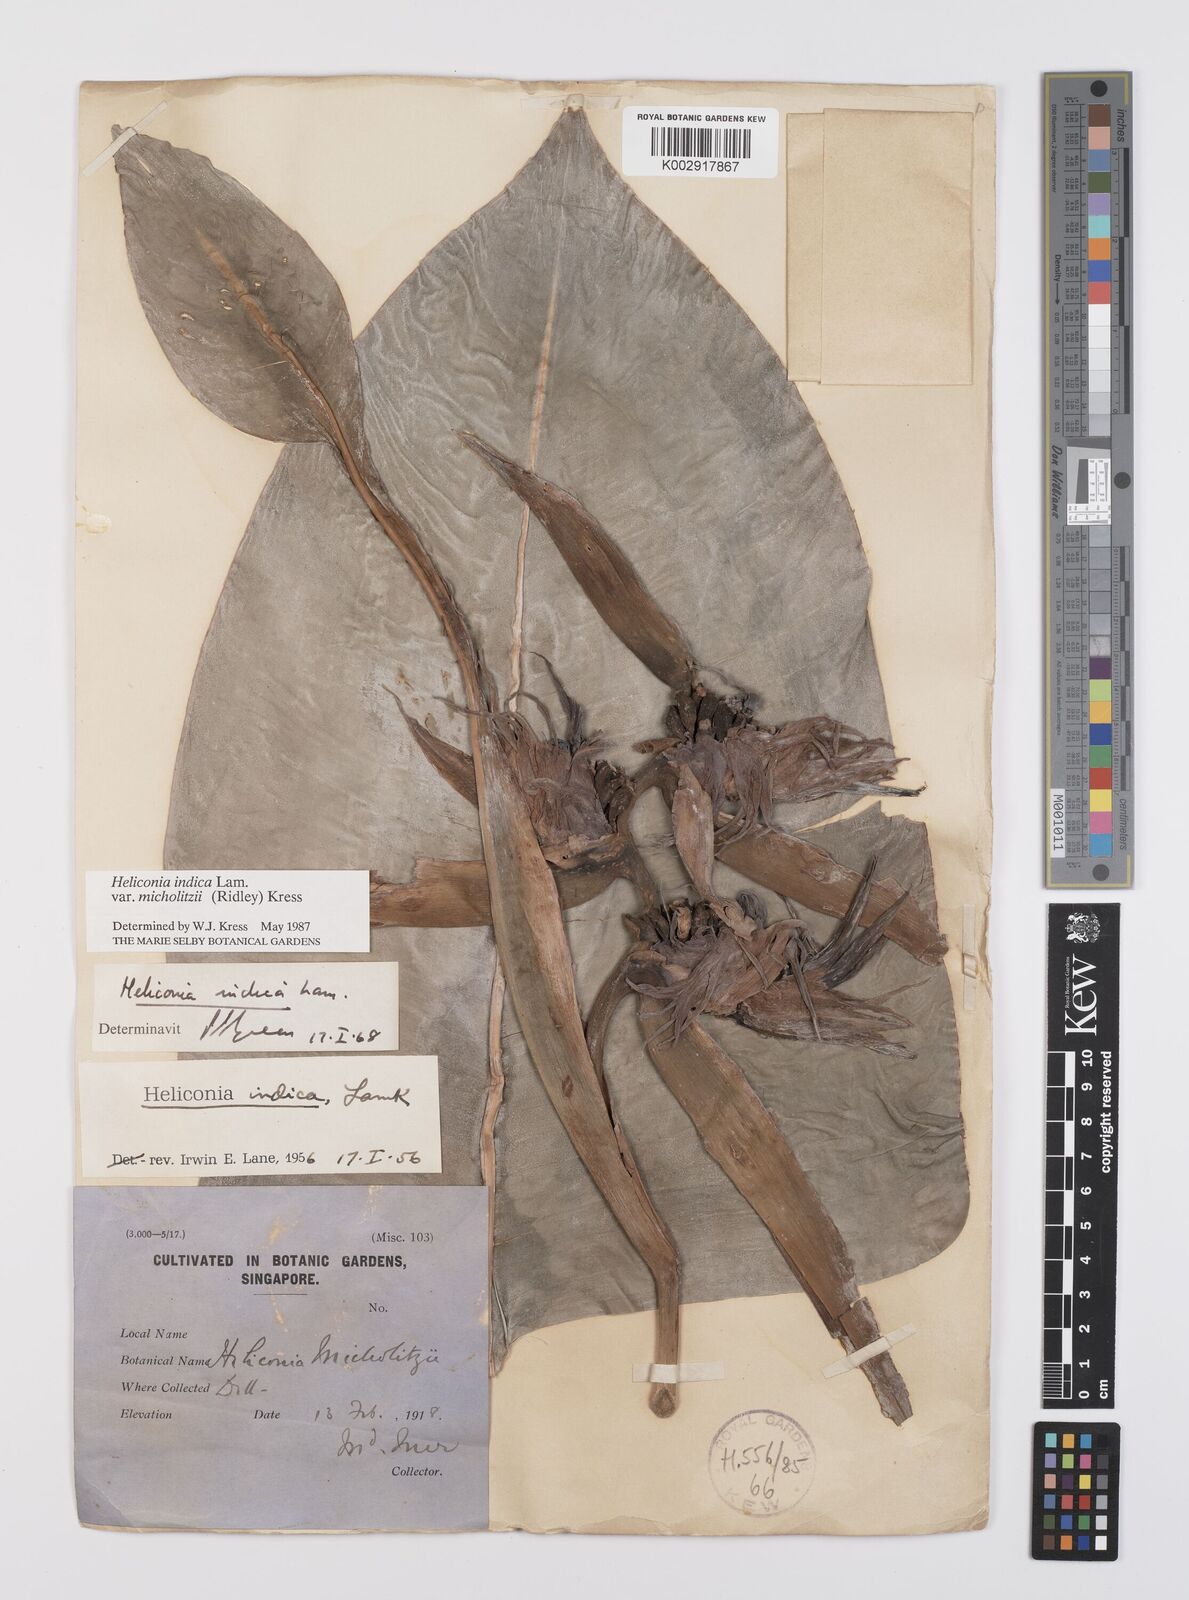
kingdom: Plantae
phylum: Tracheophyta
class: Liliopsida
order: Zingiberales
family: Heliconiaceae
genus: Heliconia
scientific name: Heliconia indica
